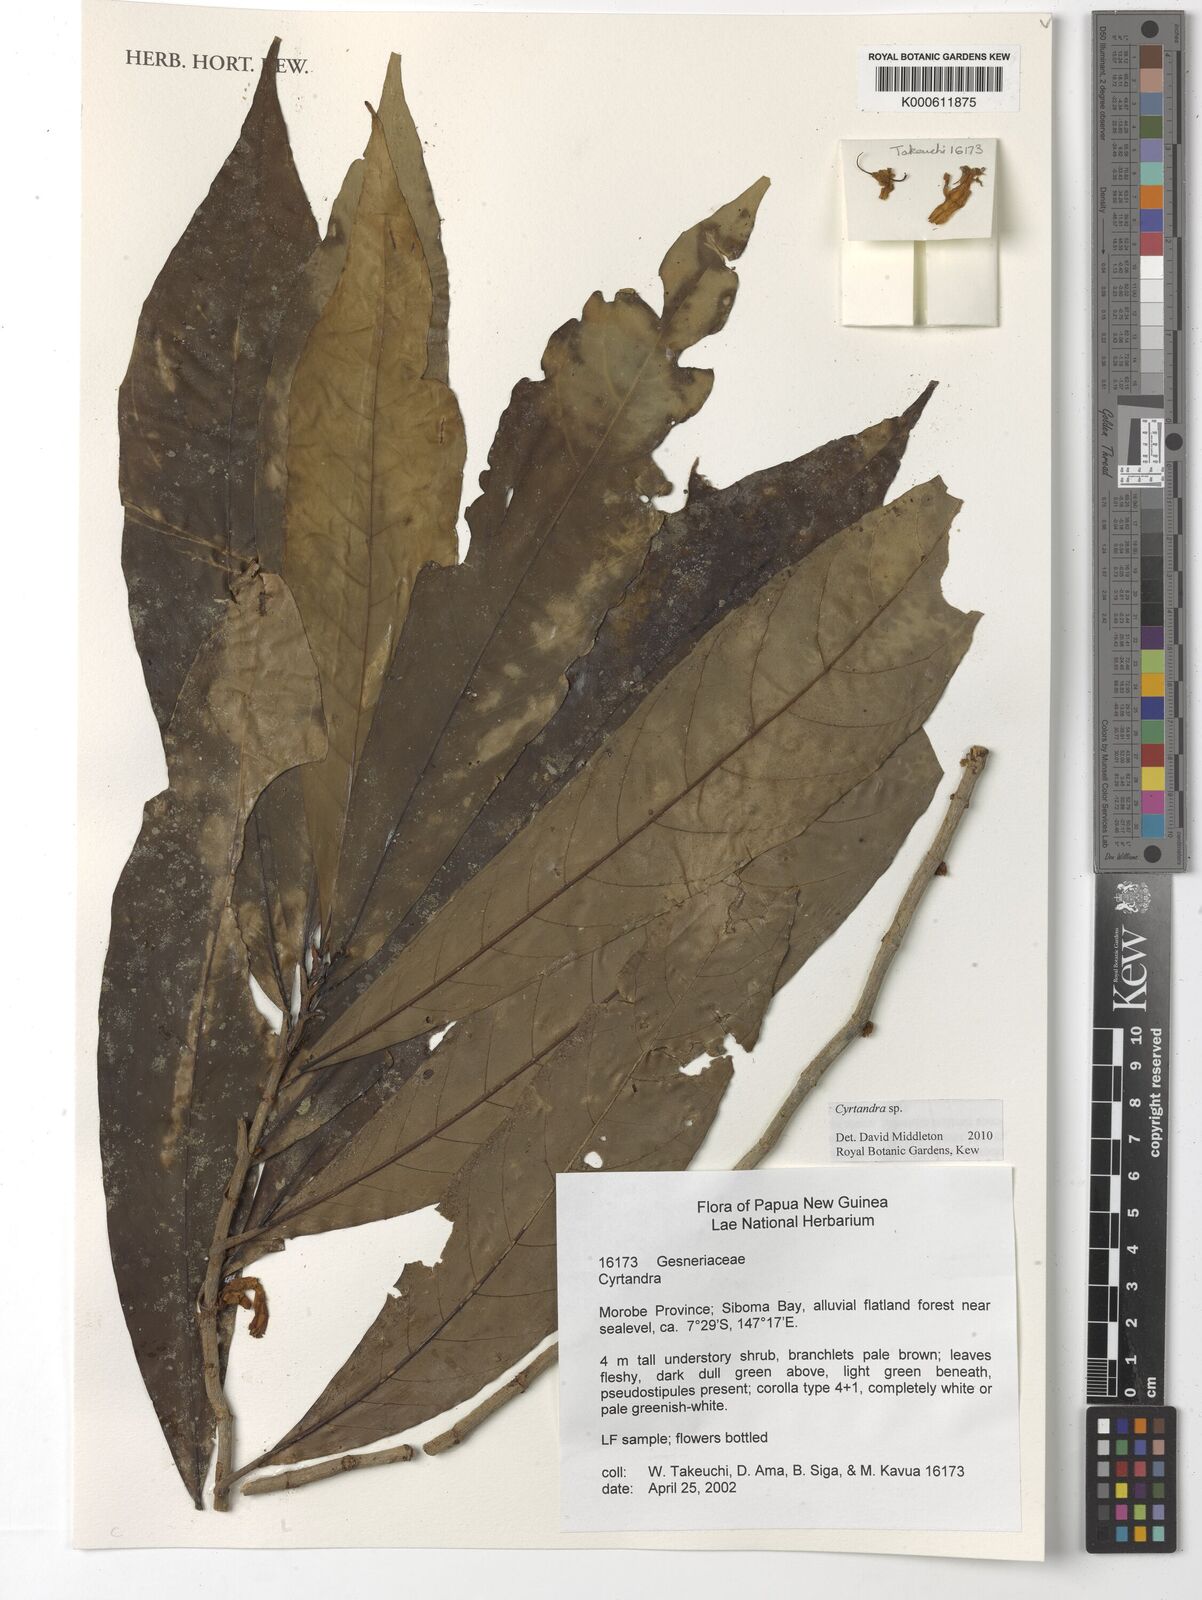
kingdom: Plantae
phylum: Tracheophyta
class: Magnoliopsida
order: Lamiales
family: Gesneriaceae
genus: Cyrtandra
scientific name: Cyrtandra
